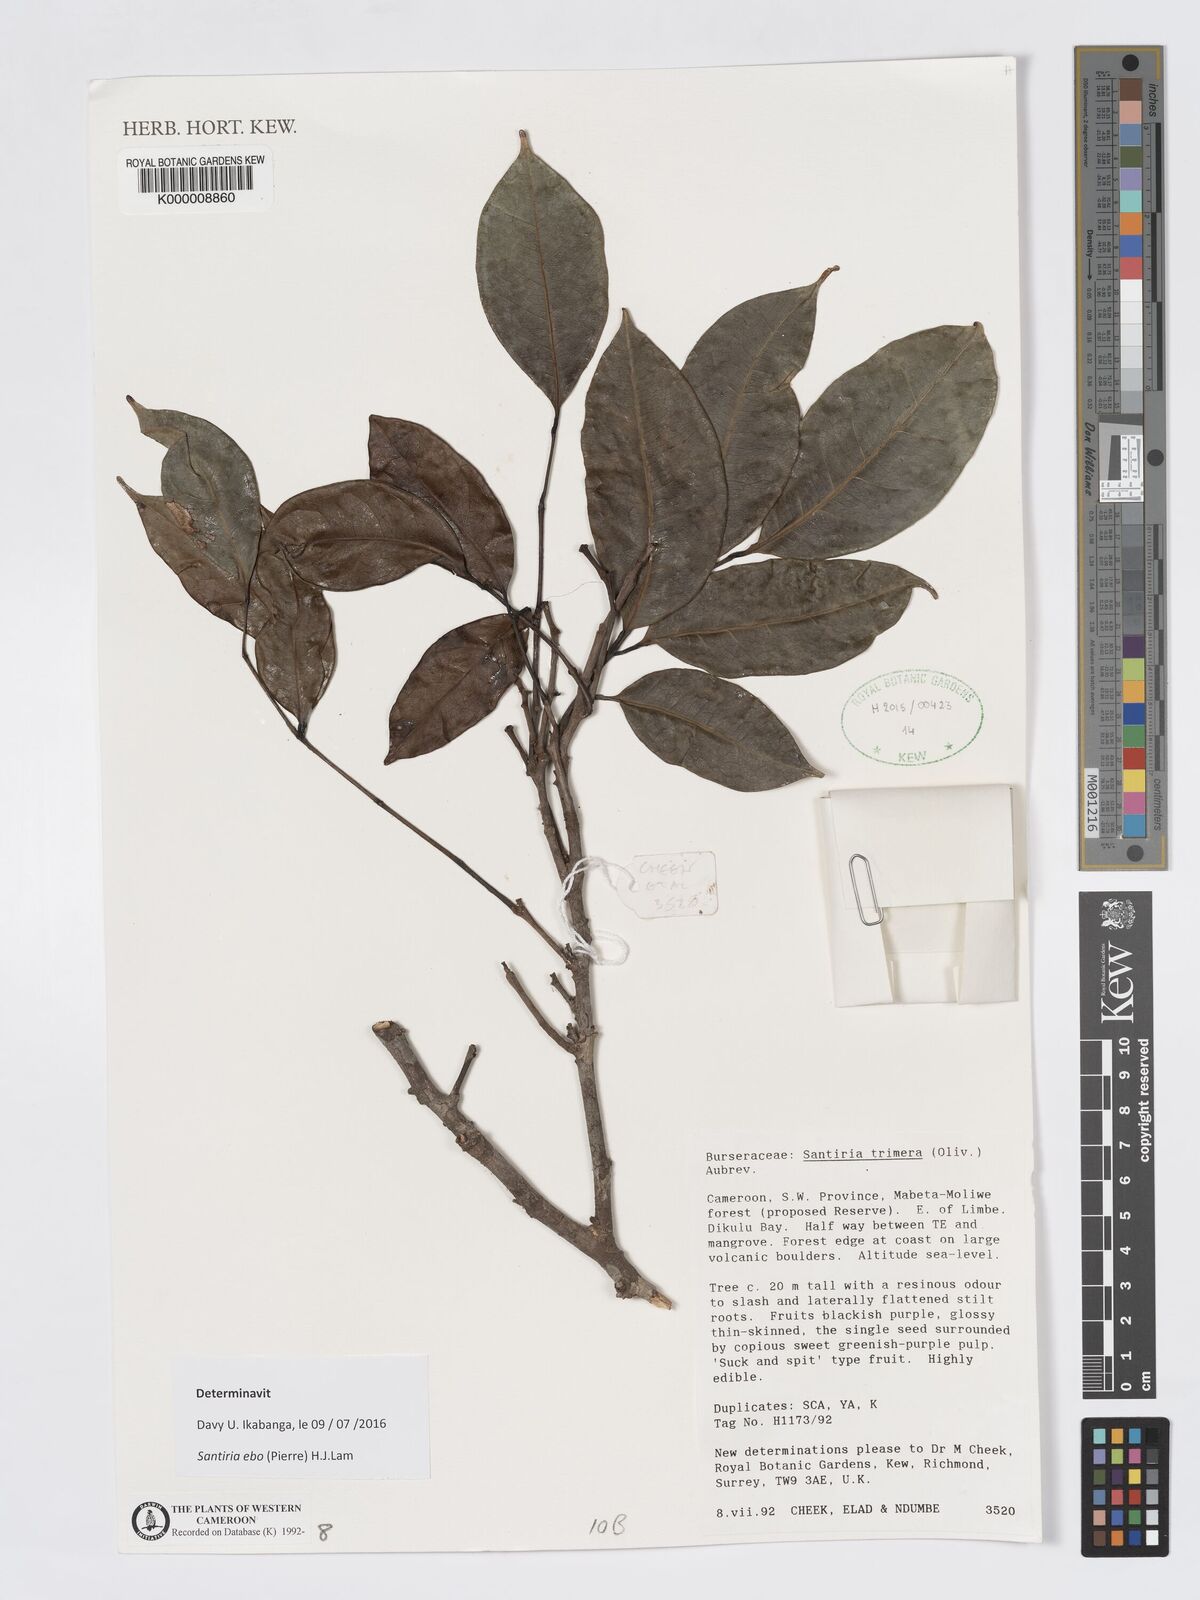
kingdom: Plantae
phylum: Tracheophyta
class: Magnoliopsida
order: Sapindales
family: Burseraceae
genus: Santiria
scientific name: Santiria
